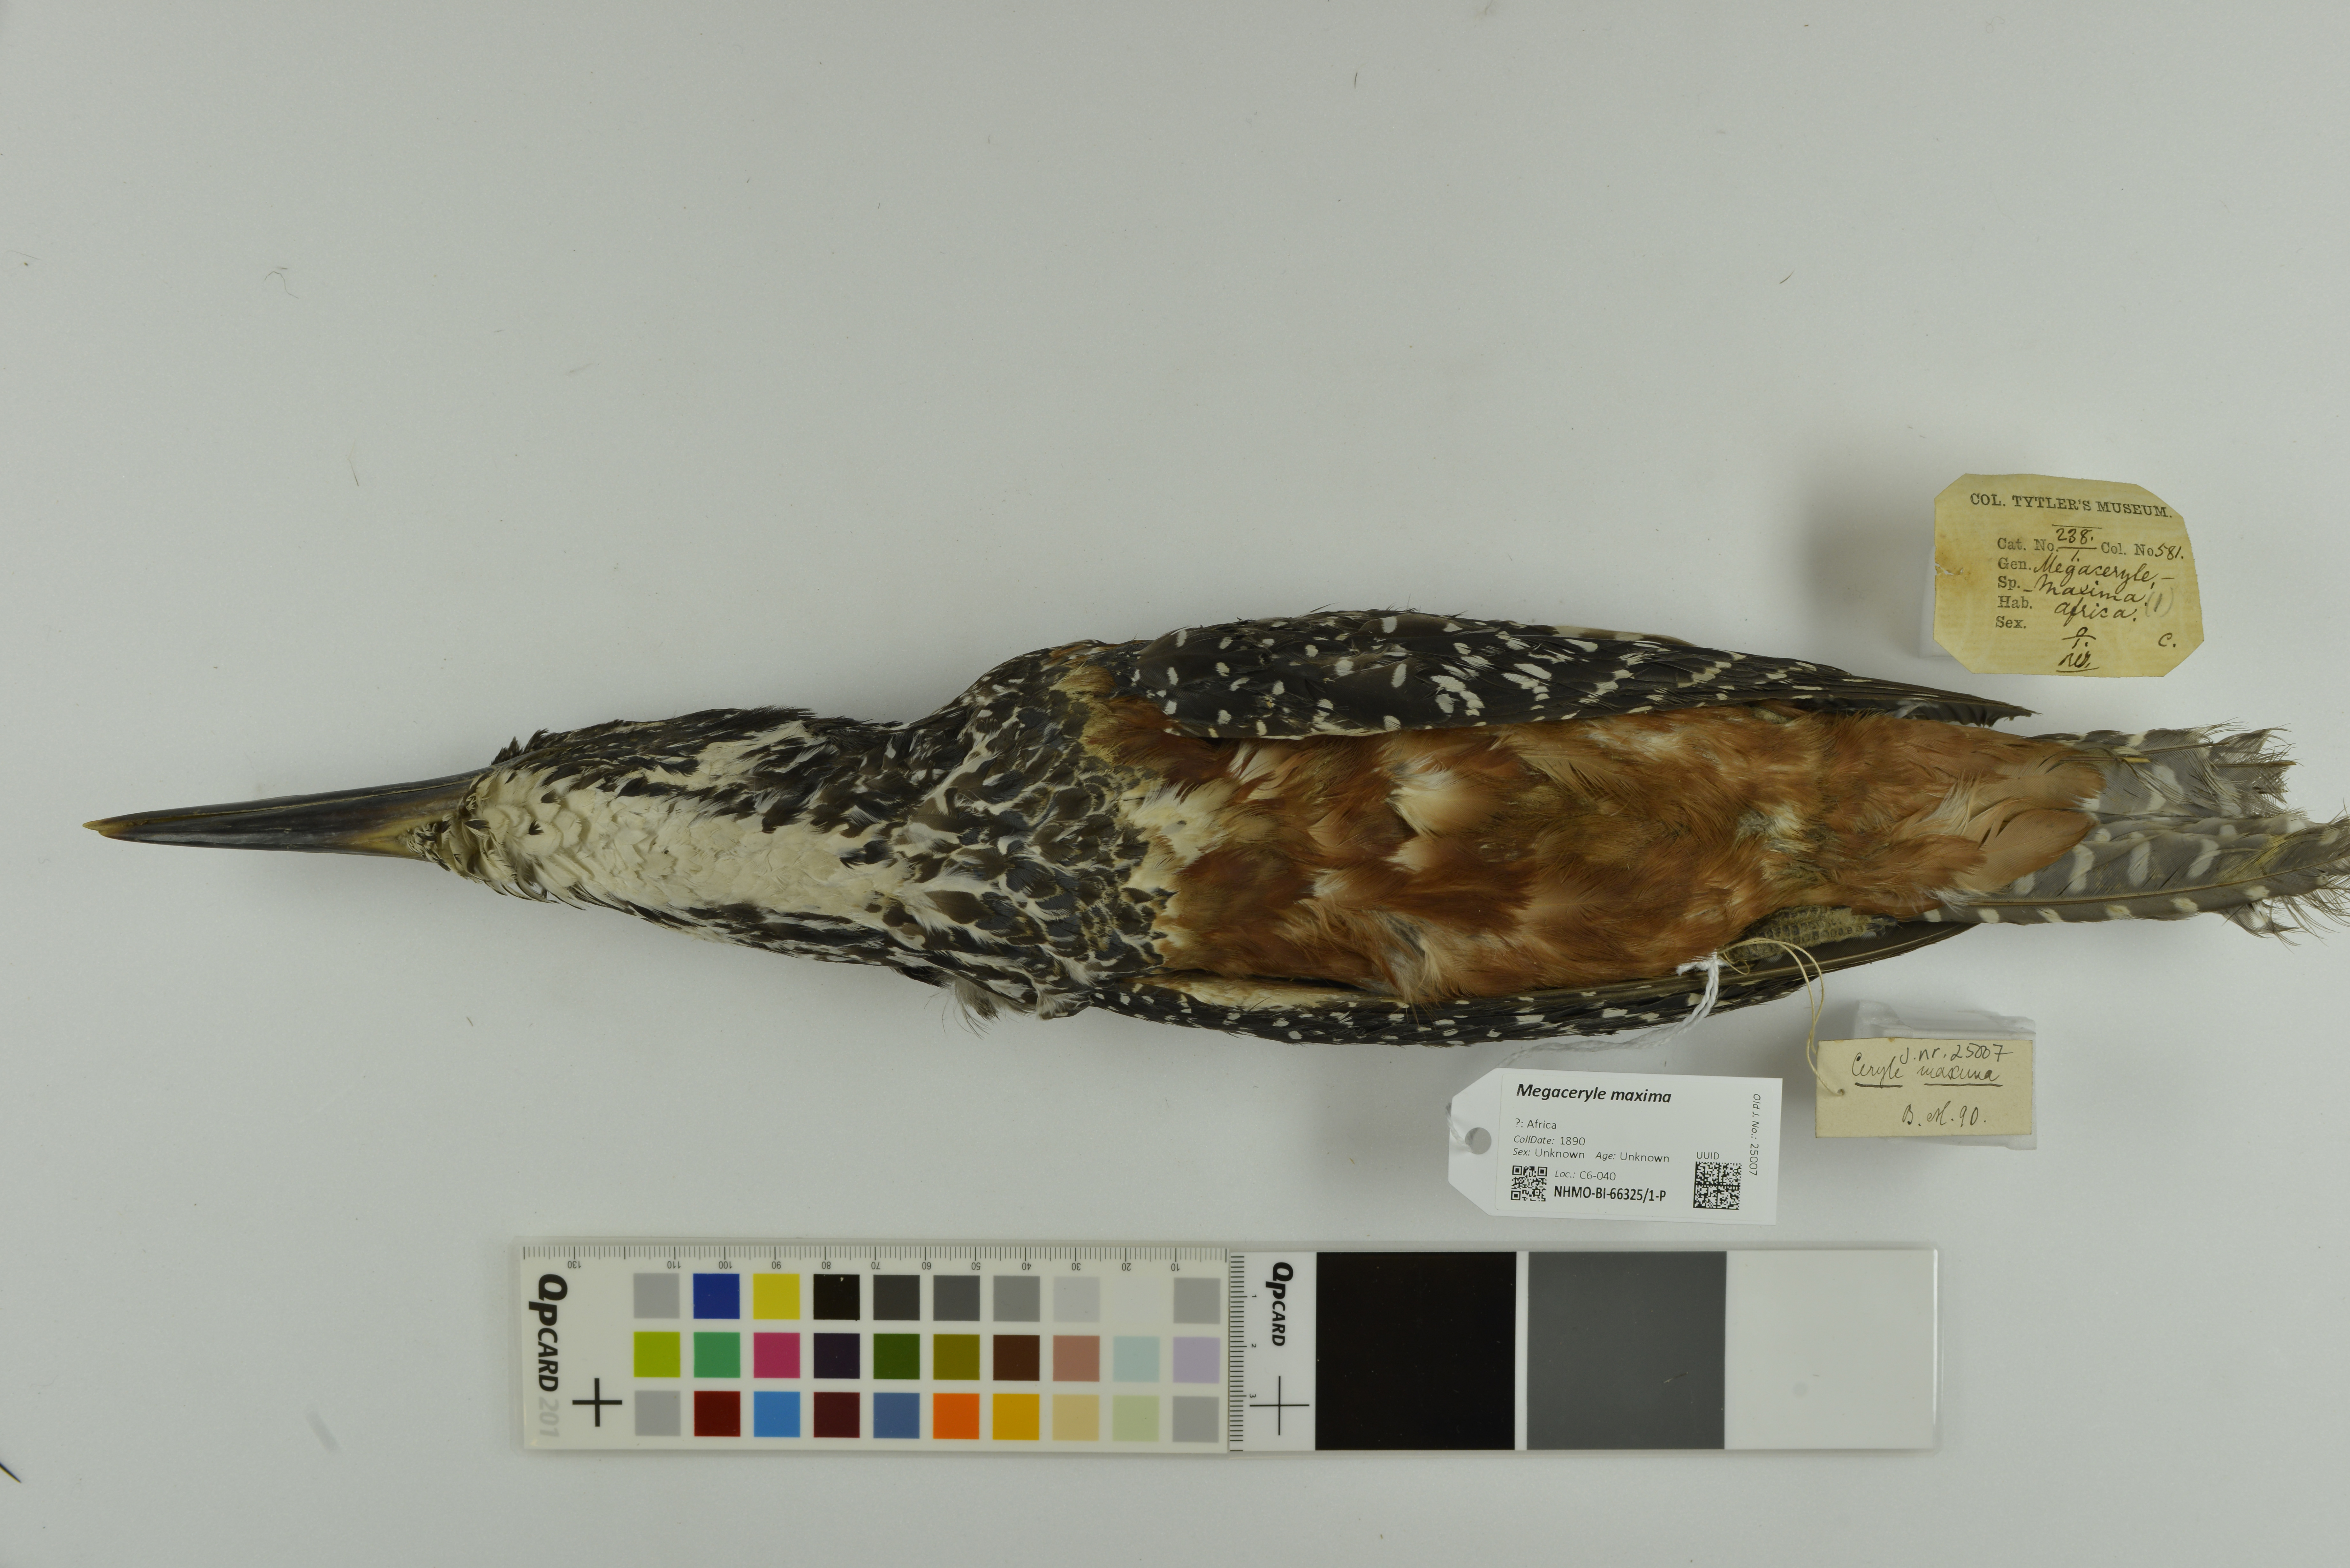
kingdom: Animalia
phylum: Chordata
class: Aves
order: Coraciiformes
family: Alcedinidae
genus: Megaceryle
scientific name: Megaceryle maxima
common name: Giant kingfisher
